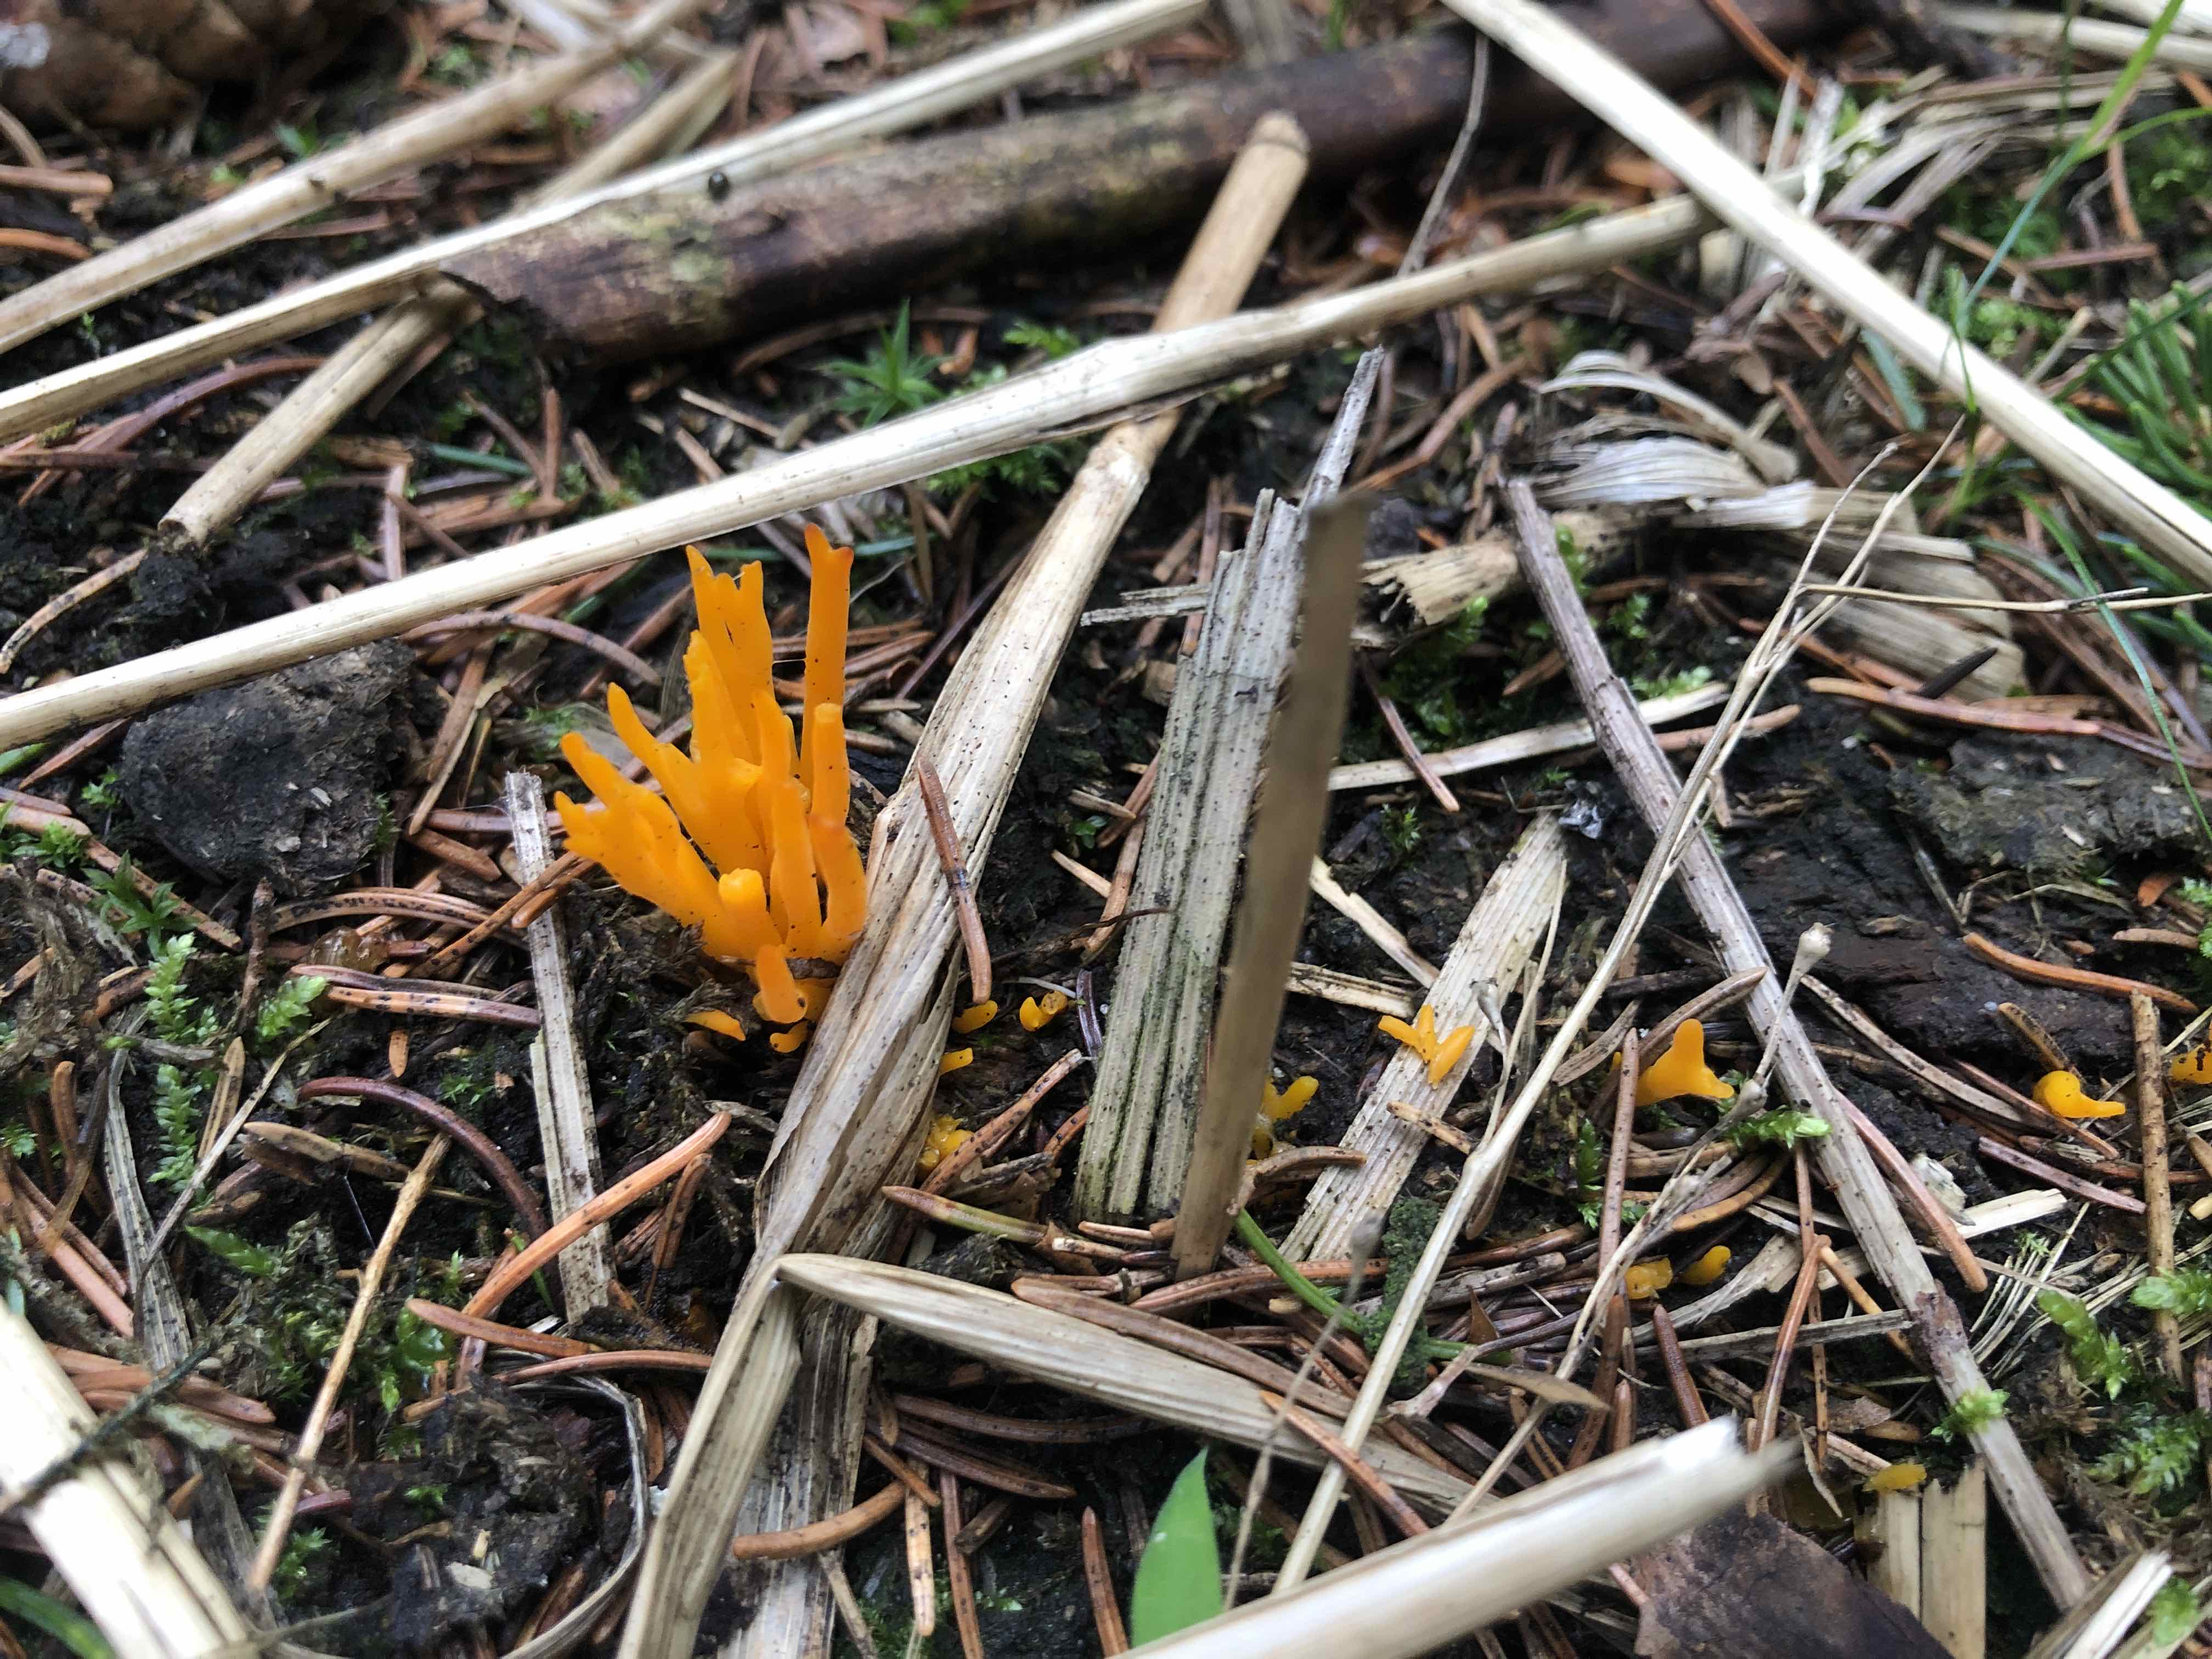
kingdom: Fungi
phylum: Basidiomycota
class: Dacrymycetes
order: Dacrymycetales
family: Dacrymycetaceae
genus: Calocera
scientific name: Calocera viscosa
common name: almindelig guldgaffel
